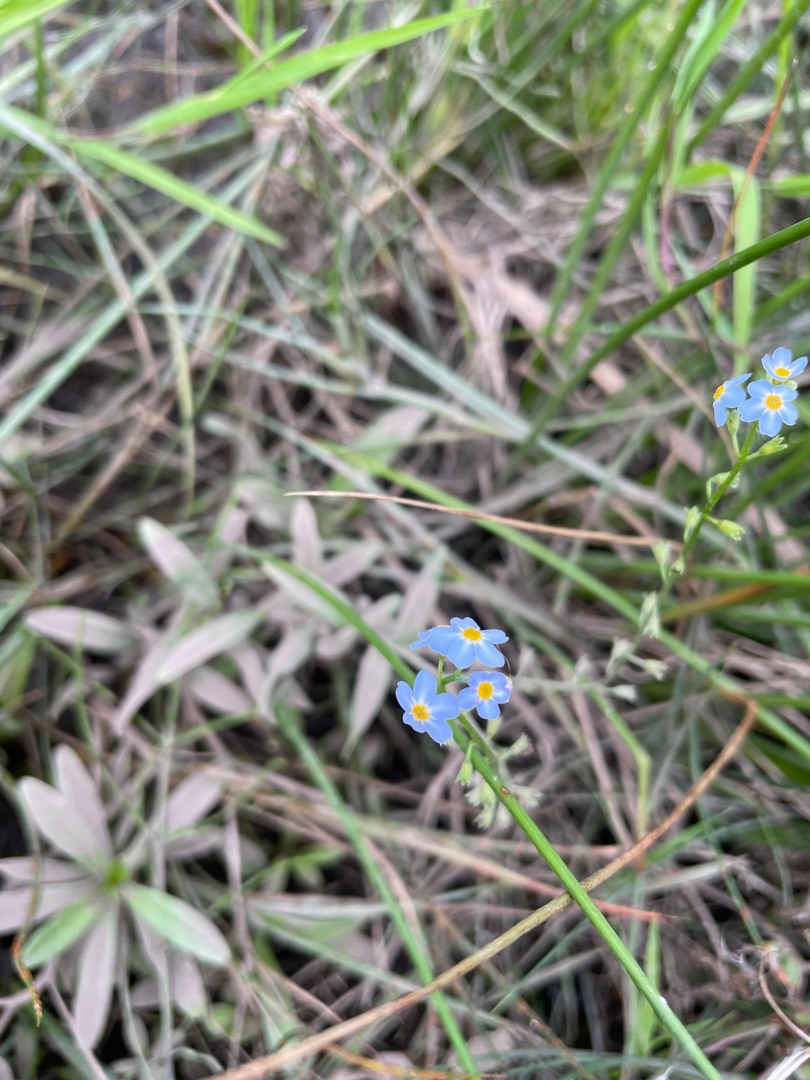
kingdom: Plantae
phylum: Tracheophyta
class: Magnoliopsida
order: Boraginales
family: Boraginaceae
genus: Myosotis
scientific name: Myosotis scorpioides
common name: Eng-forglemmigej
